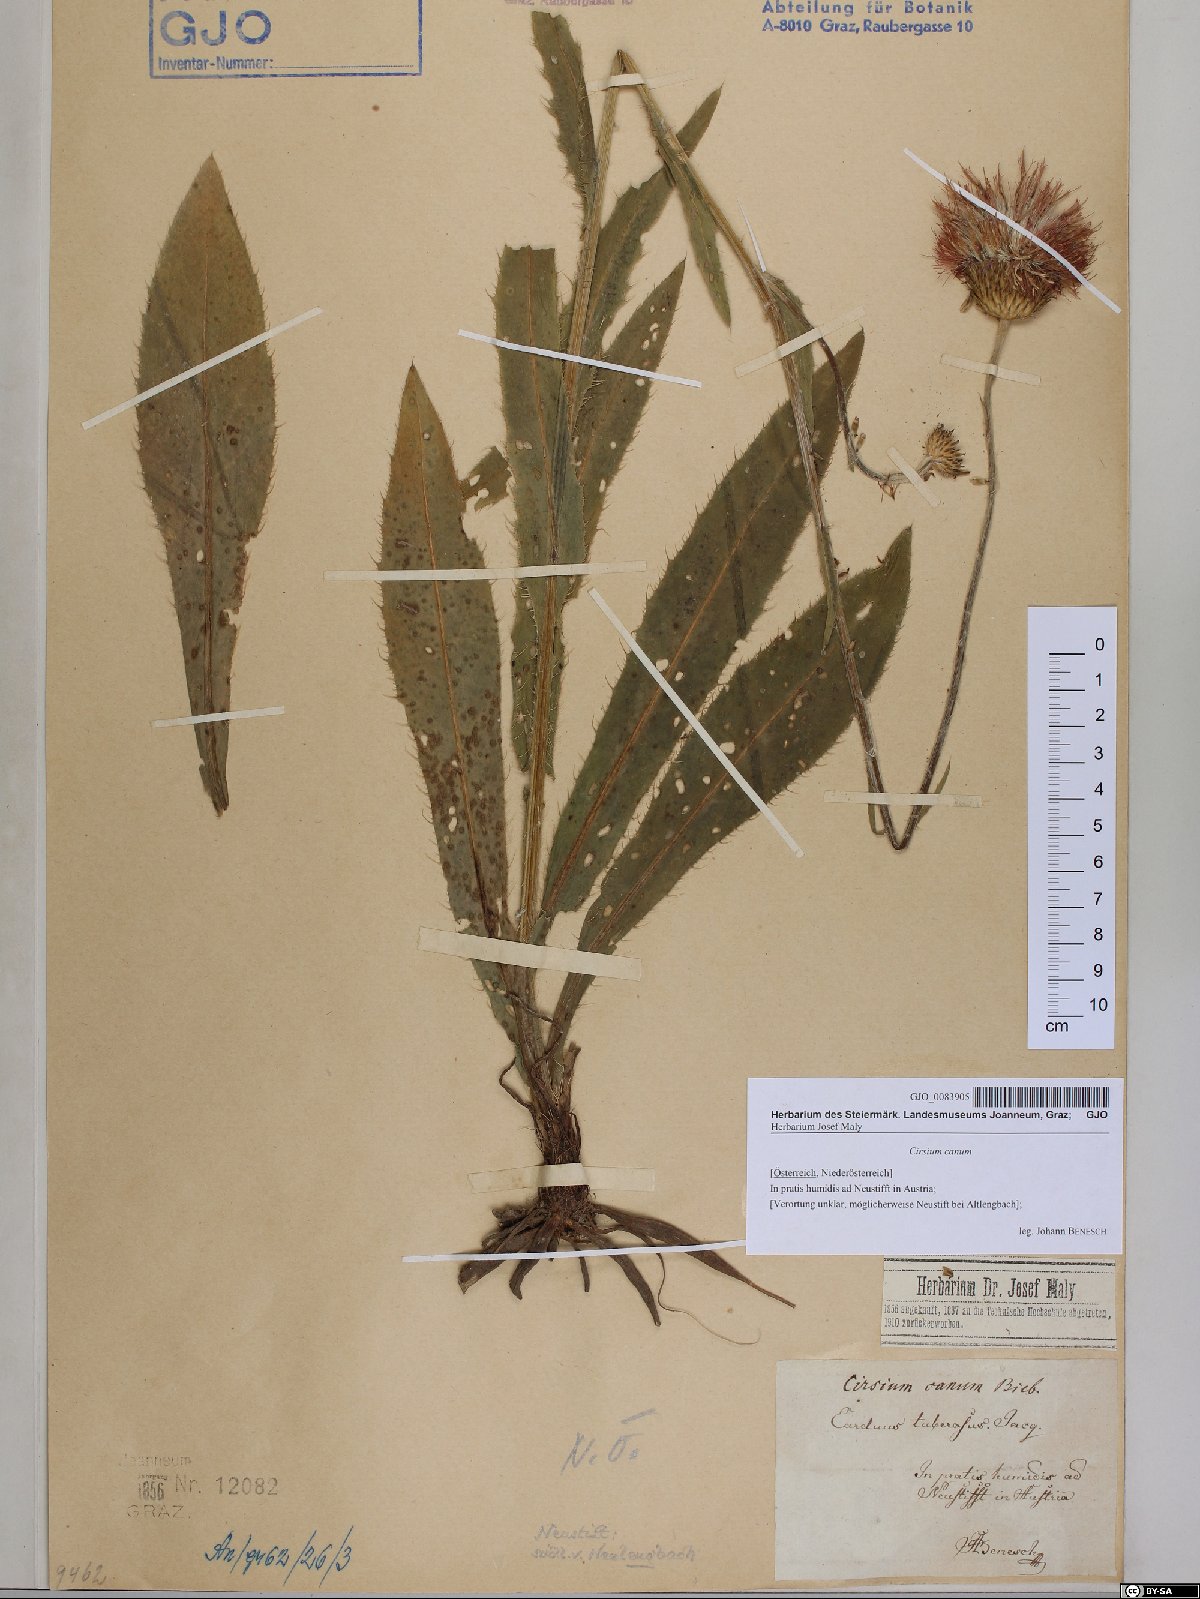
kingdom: Plantae
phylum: Tracheophyta
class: Magnoliopsida
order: Asterales
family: Asteraceae
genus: Cirsium
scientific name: Cirsium canum
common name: Queen anne's thistle
